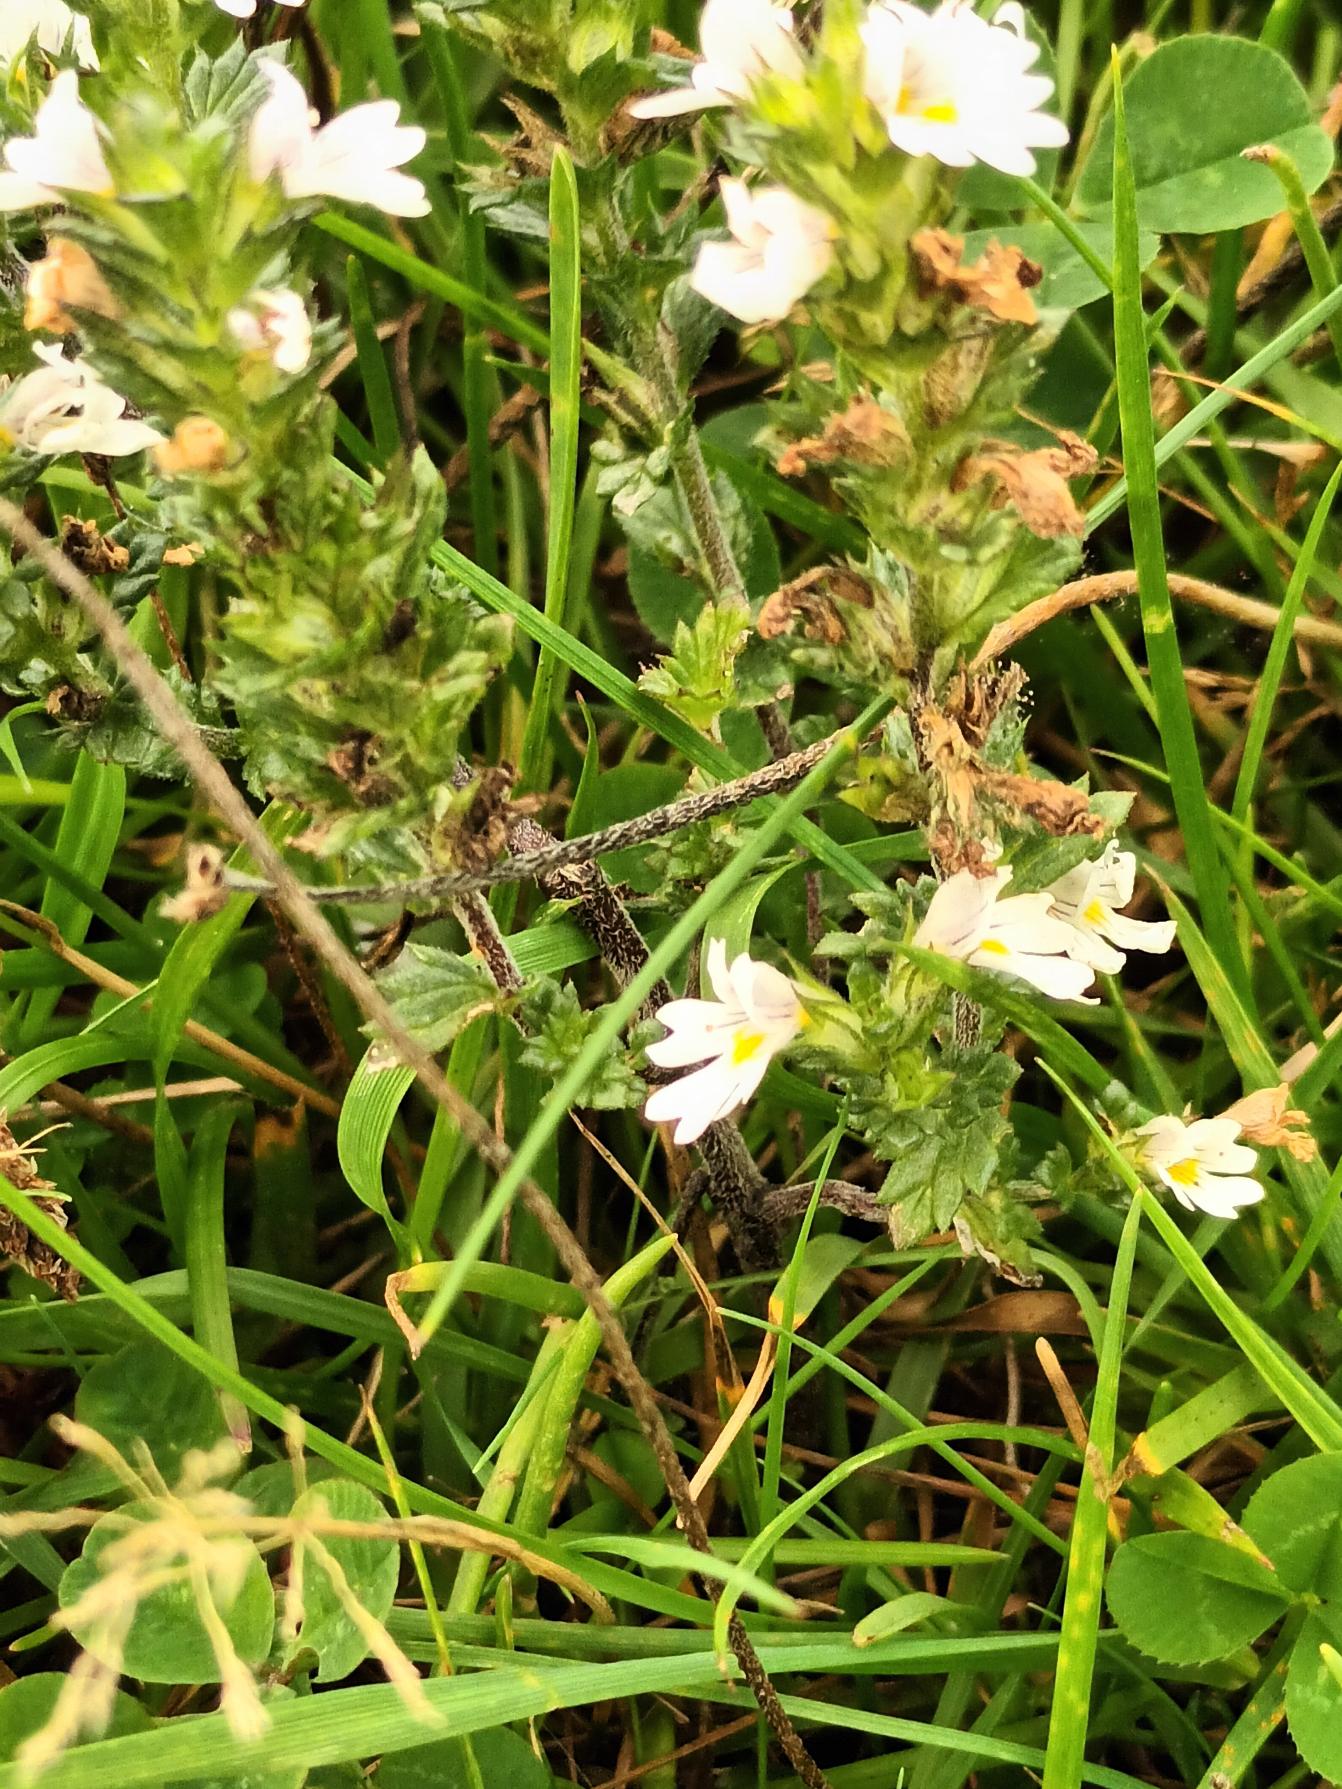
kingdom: Plantae
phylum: Tracheophyta
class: Magnoliopsida
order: Lamiales
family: Orobanchaceae
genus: Euphrasia
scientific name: Euphrasia nemorosa
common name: Kort øjentrøst
